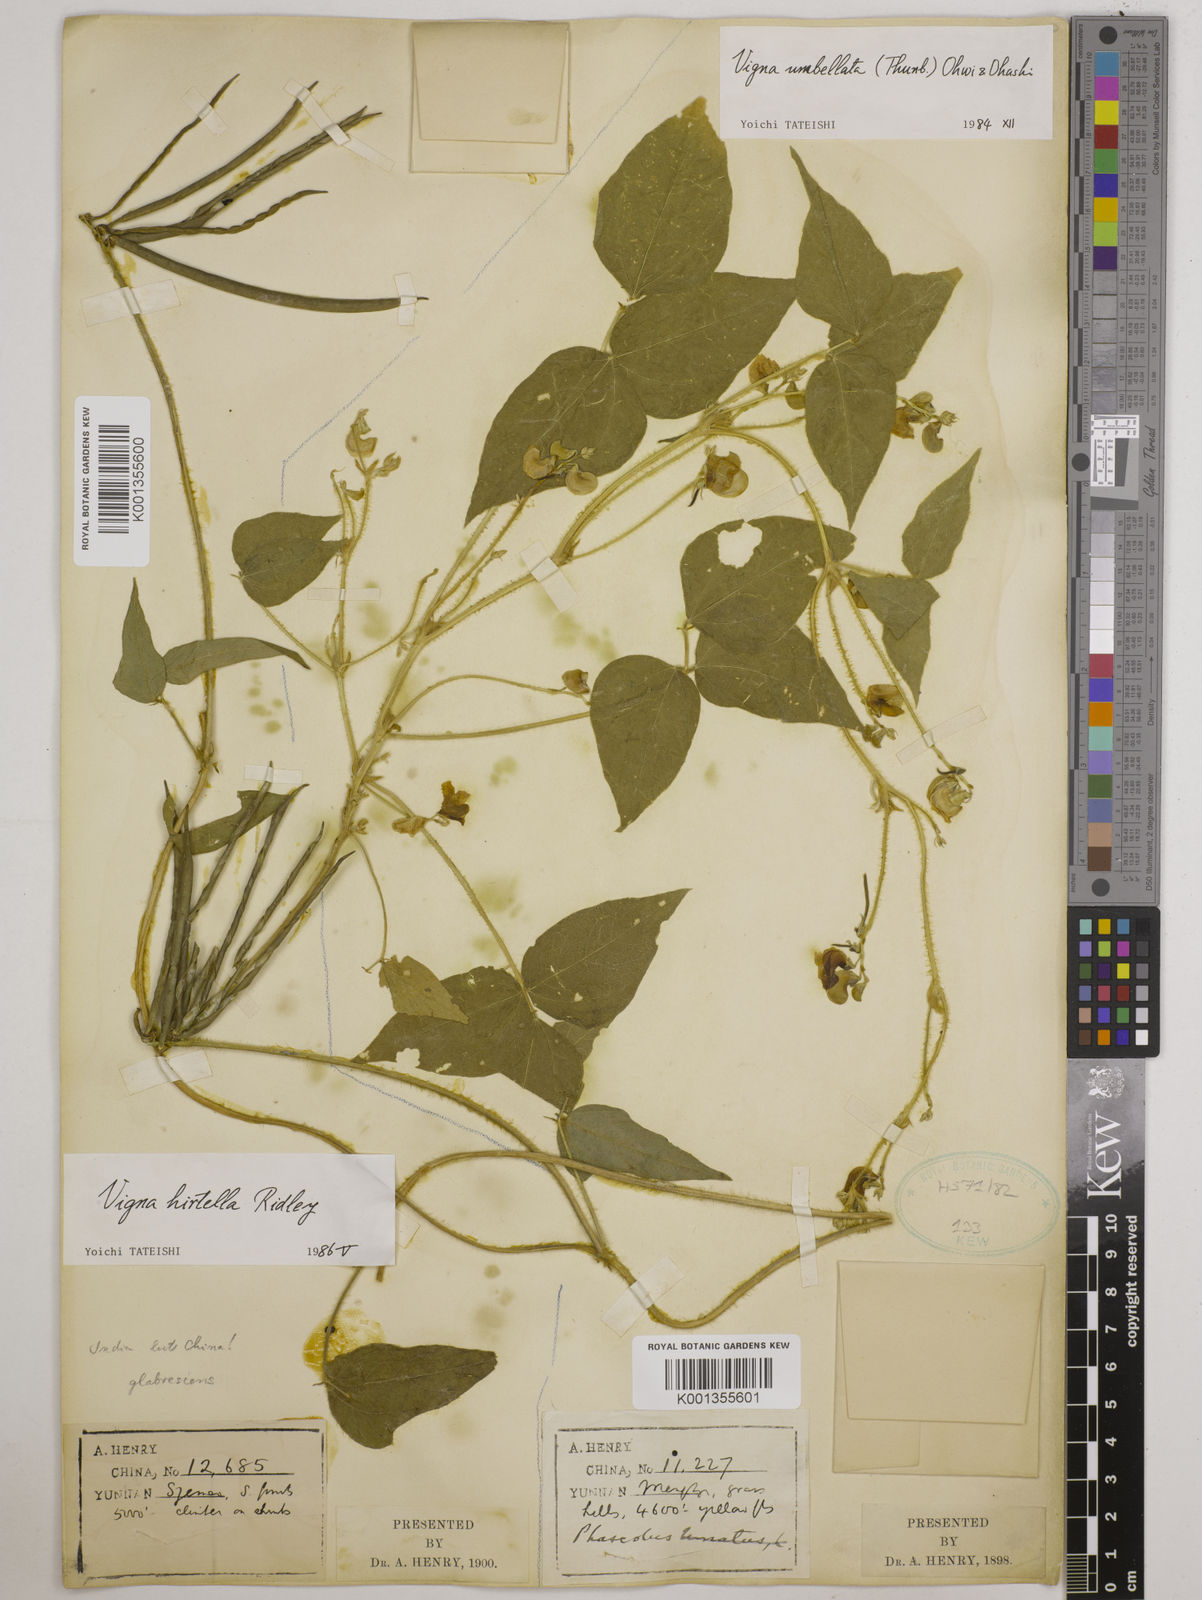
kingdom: Plantae
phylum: Tracheophyta
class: Magnoliopsida
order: Fabales
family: Fabaceae
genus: Vigna
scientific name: Vigna umbellata
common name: Oriental-bean
